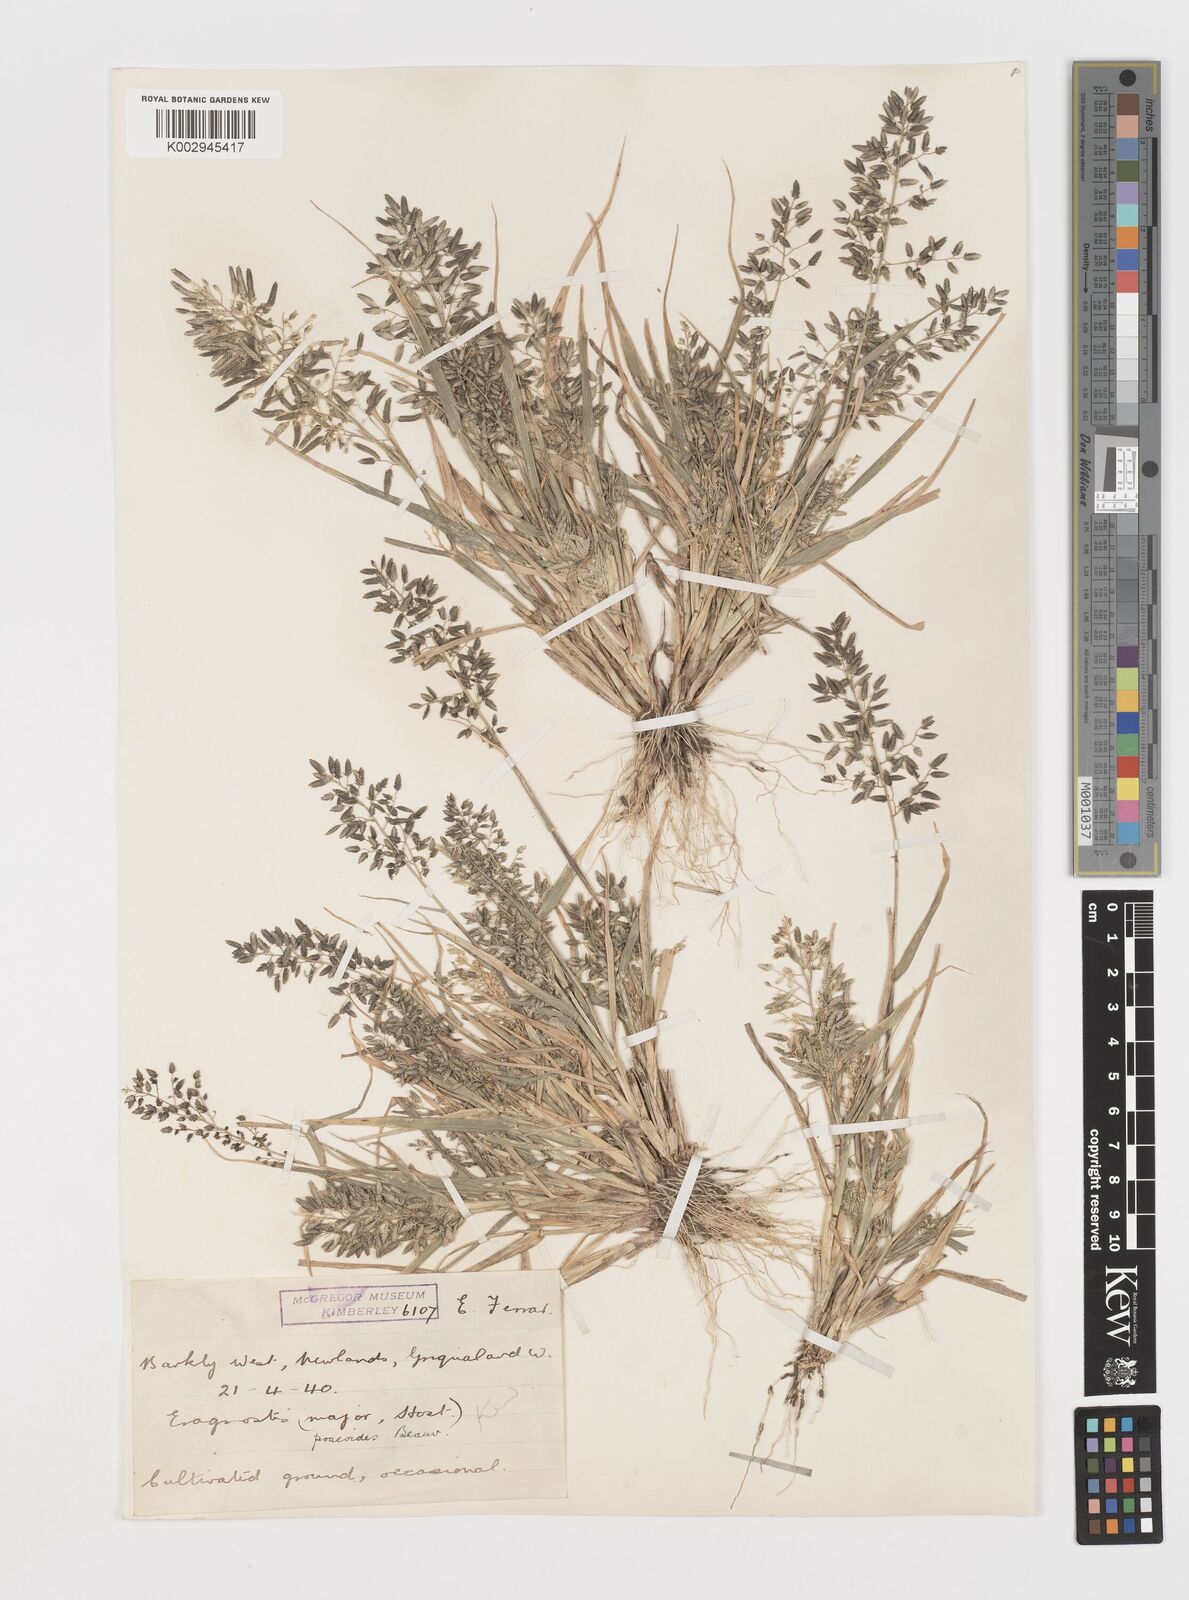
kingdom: Plantae
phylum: Tracheophyta
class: Liliopsida
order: Poales
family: Poaceae
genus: Eragrostis
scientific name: Eragrostis cilianensis
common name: Stinkgrass
